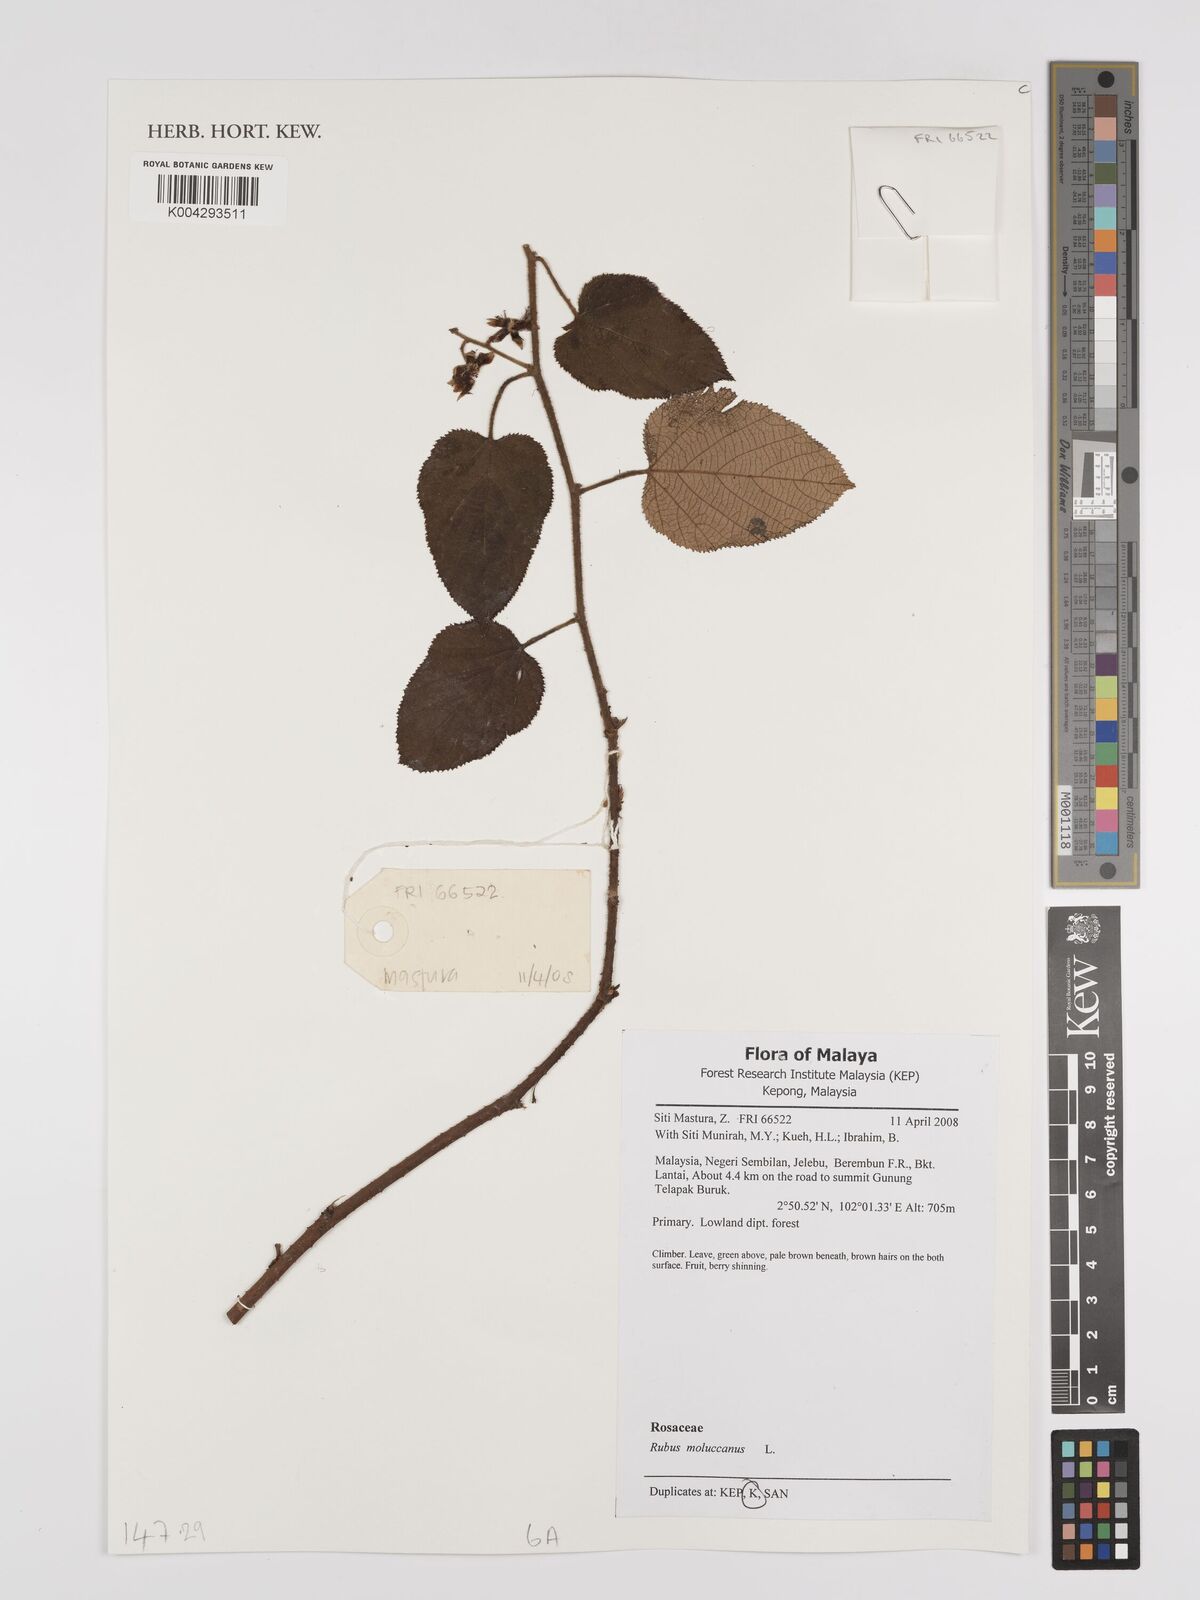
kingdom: Plantae
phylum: Tracheophyta
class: Magnoliopsida
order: Rosales
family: Rosaceae
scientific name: Rosaceae
